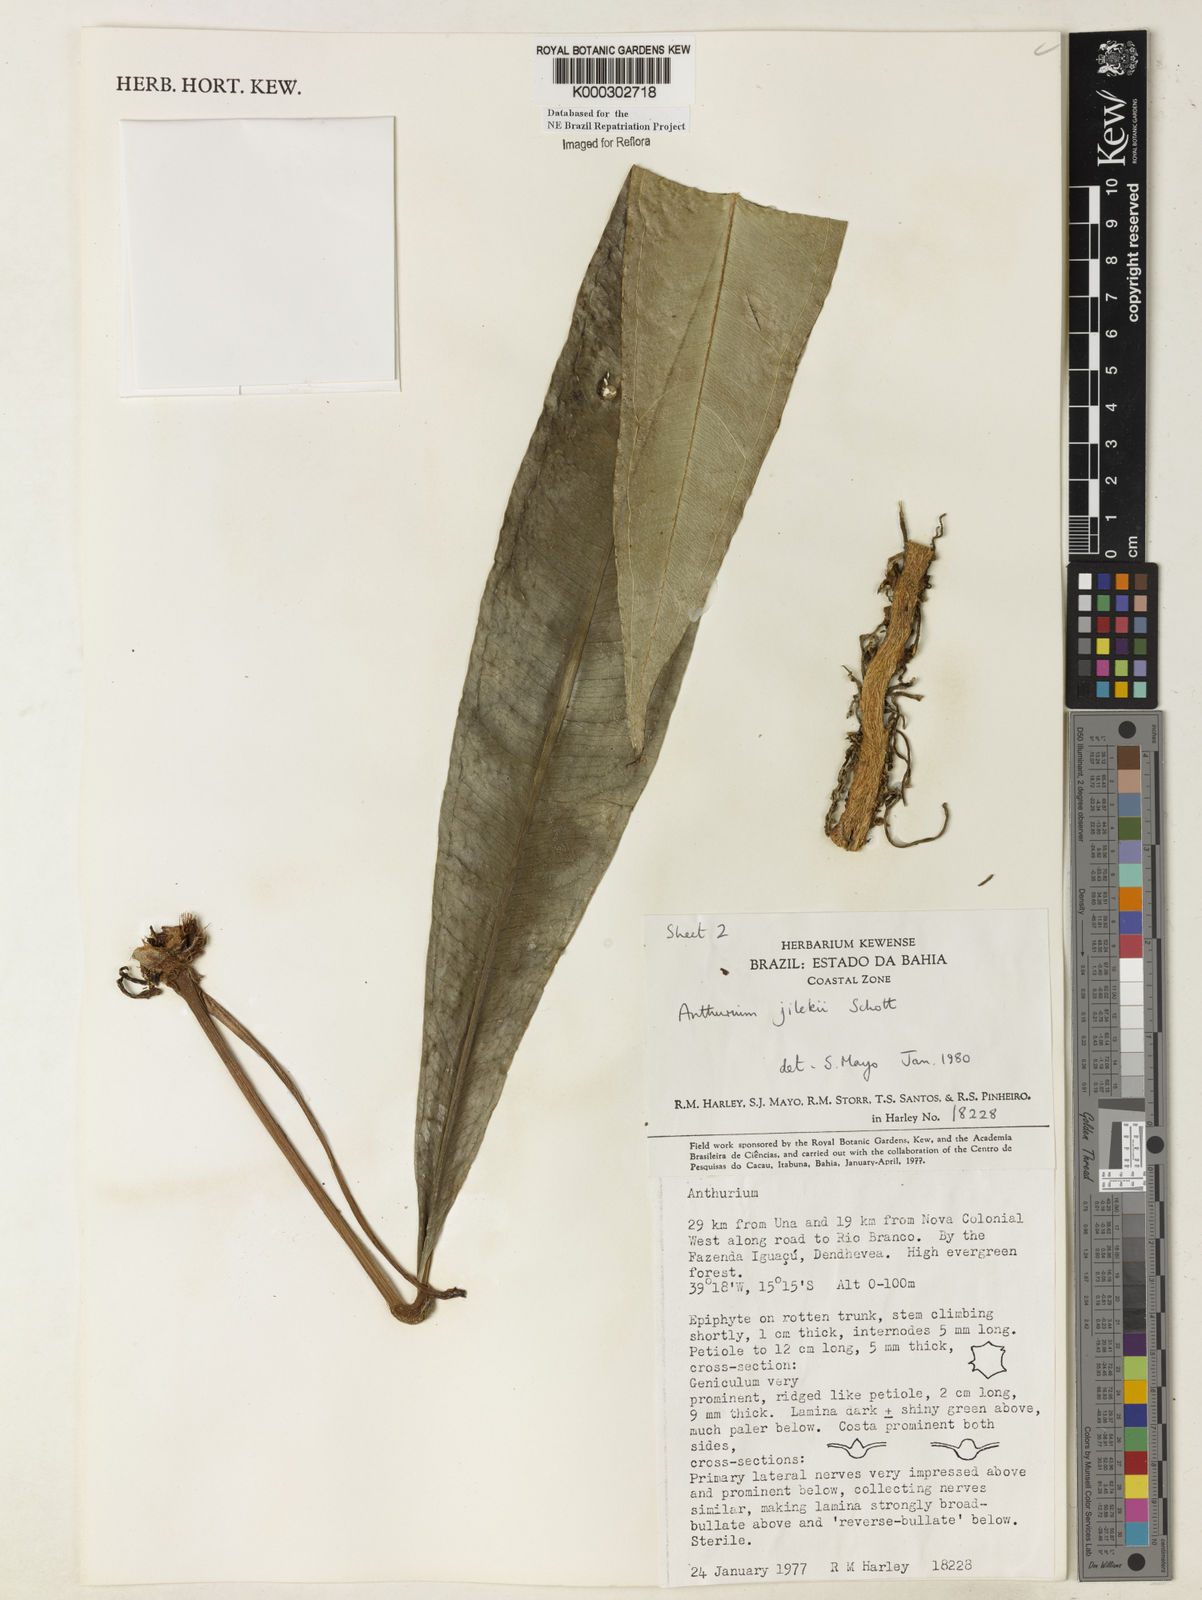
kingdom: Plantae
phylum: Tracheophyta
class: Liliopsida
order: Alismatales
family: Araceae
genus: Anthurium
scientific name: Anthurium jilekii
